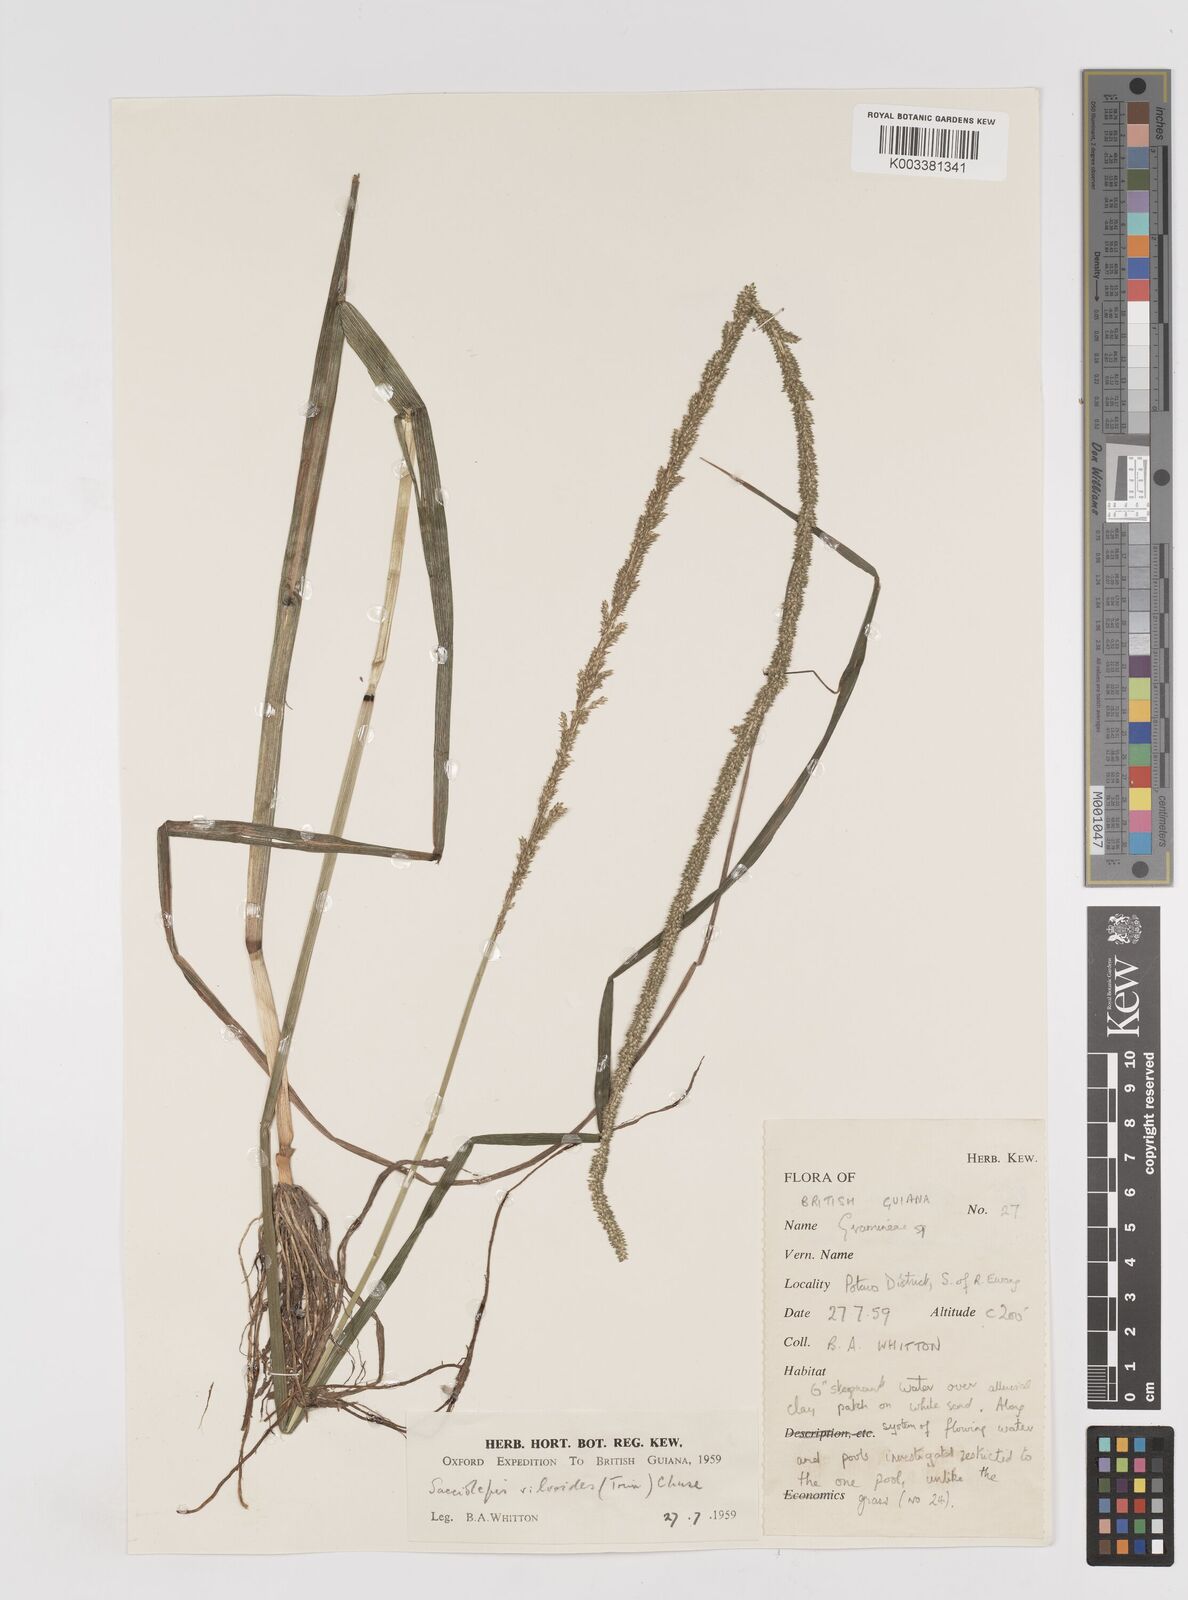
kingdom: Plantae
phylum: Tracheophyta
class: Liliopsida
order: Poales
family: Poaceae
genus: Sacciolepis
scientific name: Sacciolepis myuros
